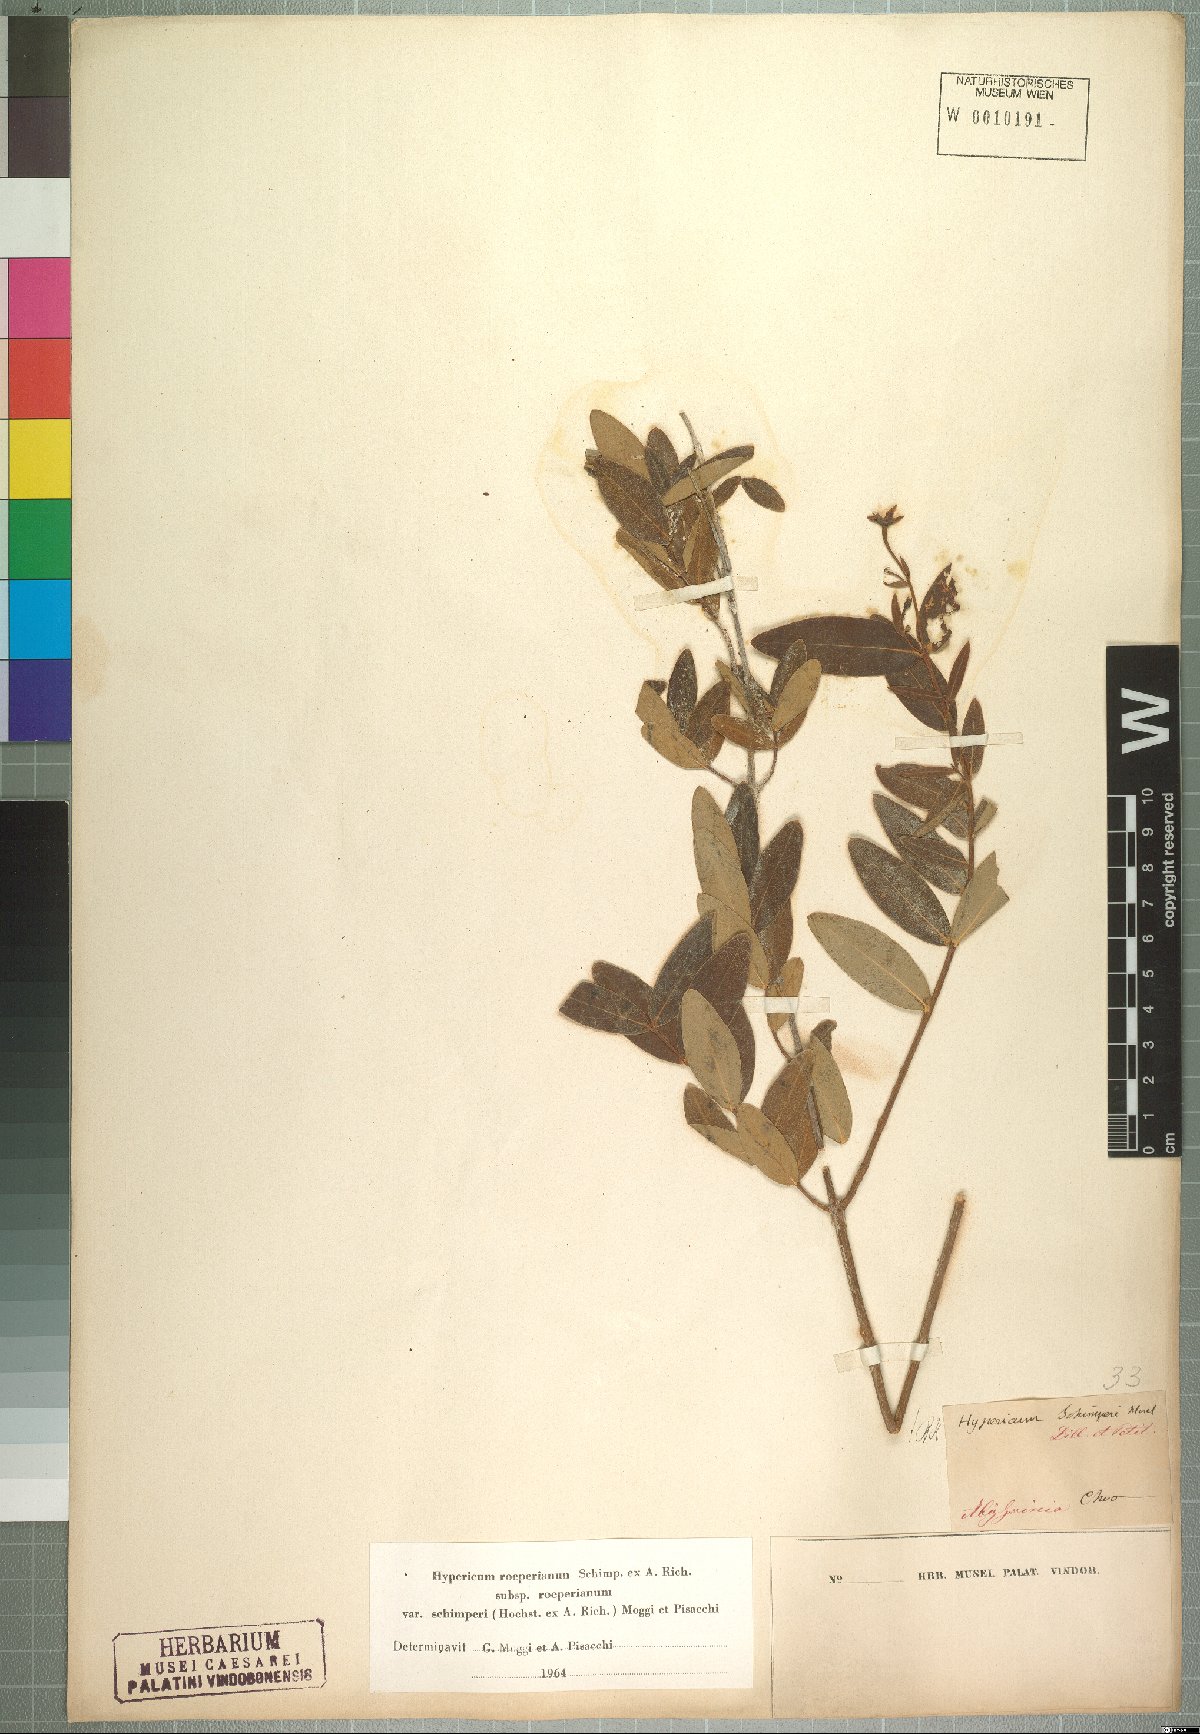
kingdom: Plantae
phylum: Tracheophyta
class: Magnoliopsida
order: Malpighiales
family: Hypericaceae
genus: Hypericum
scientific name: Hypericum roeperianum
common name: Large-leaved curry-bush
